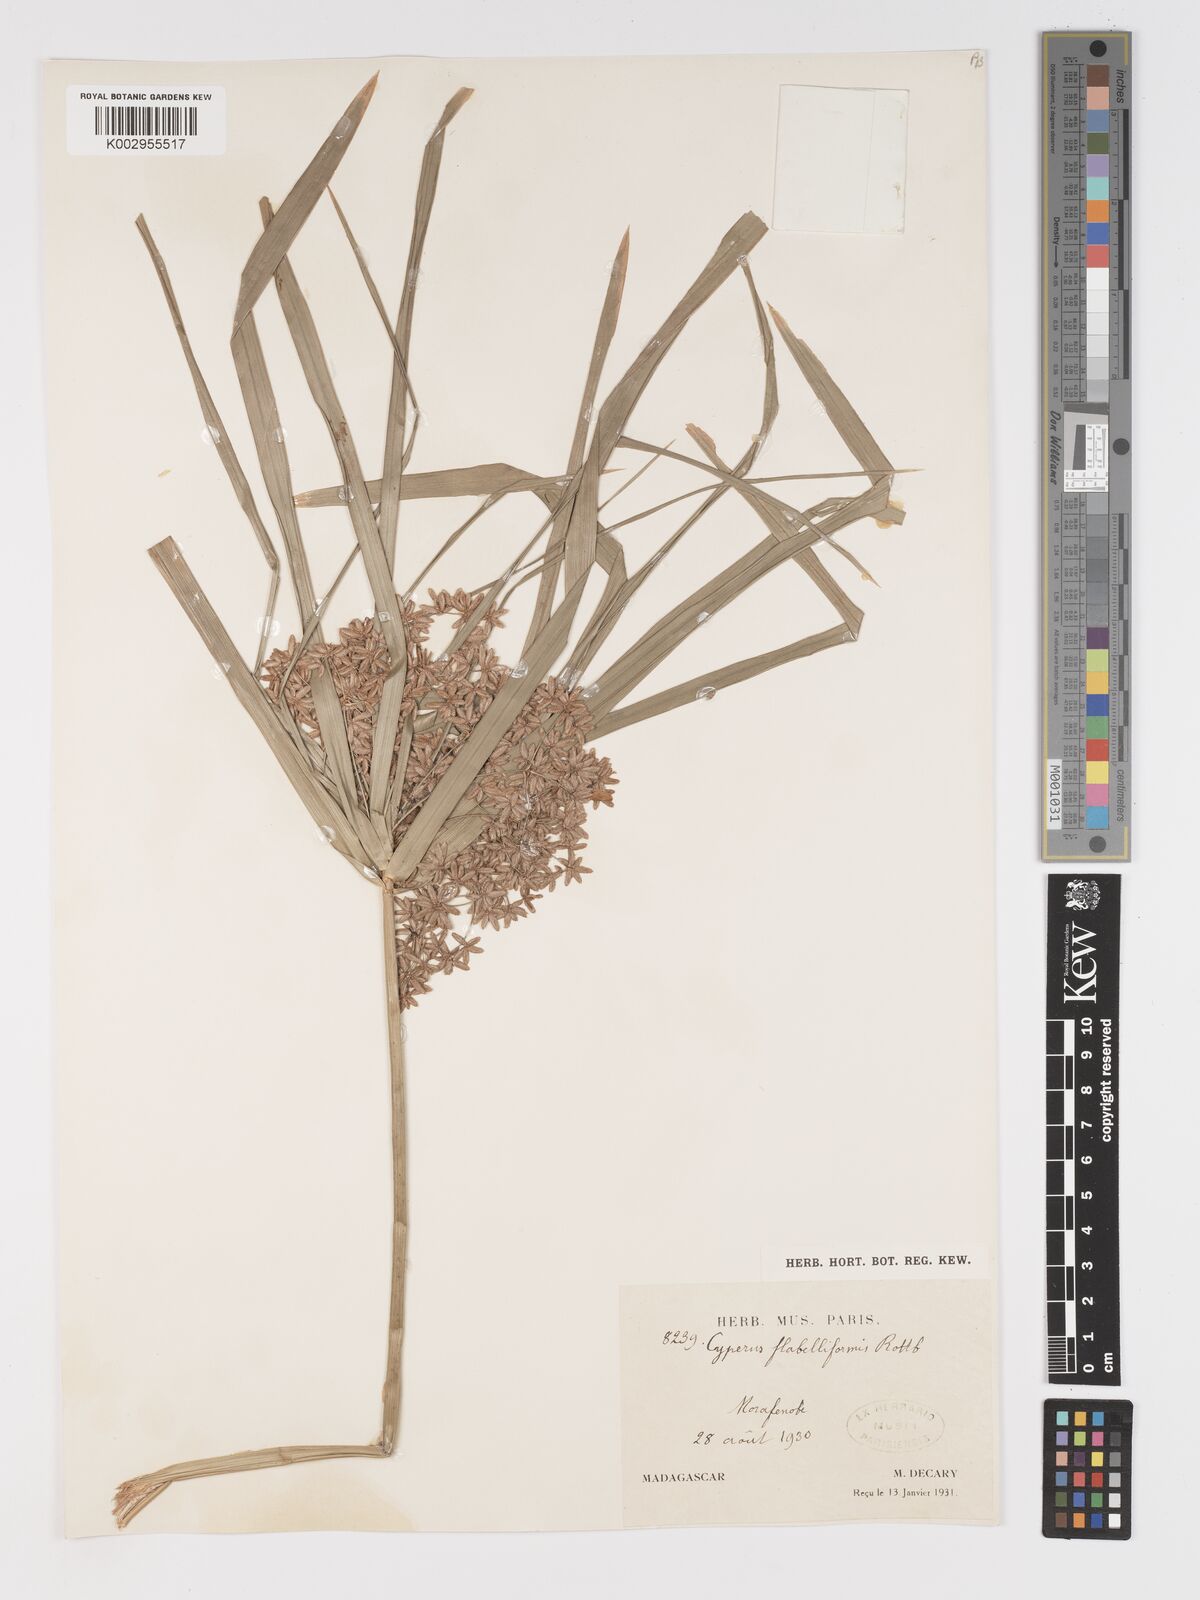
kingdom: Plantae
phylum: Tracheophyta
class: Liliopsida
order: Poales
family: Cyperaceae
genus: Cyperus
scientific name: Cyperus alternifolius
